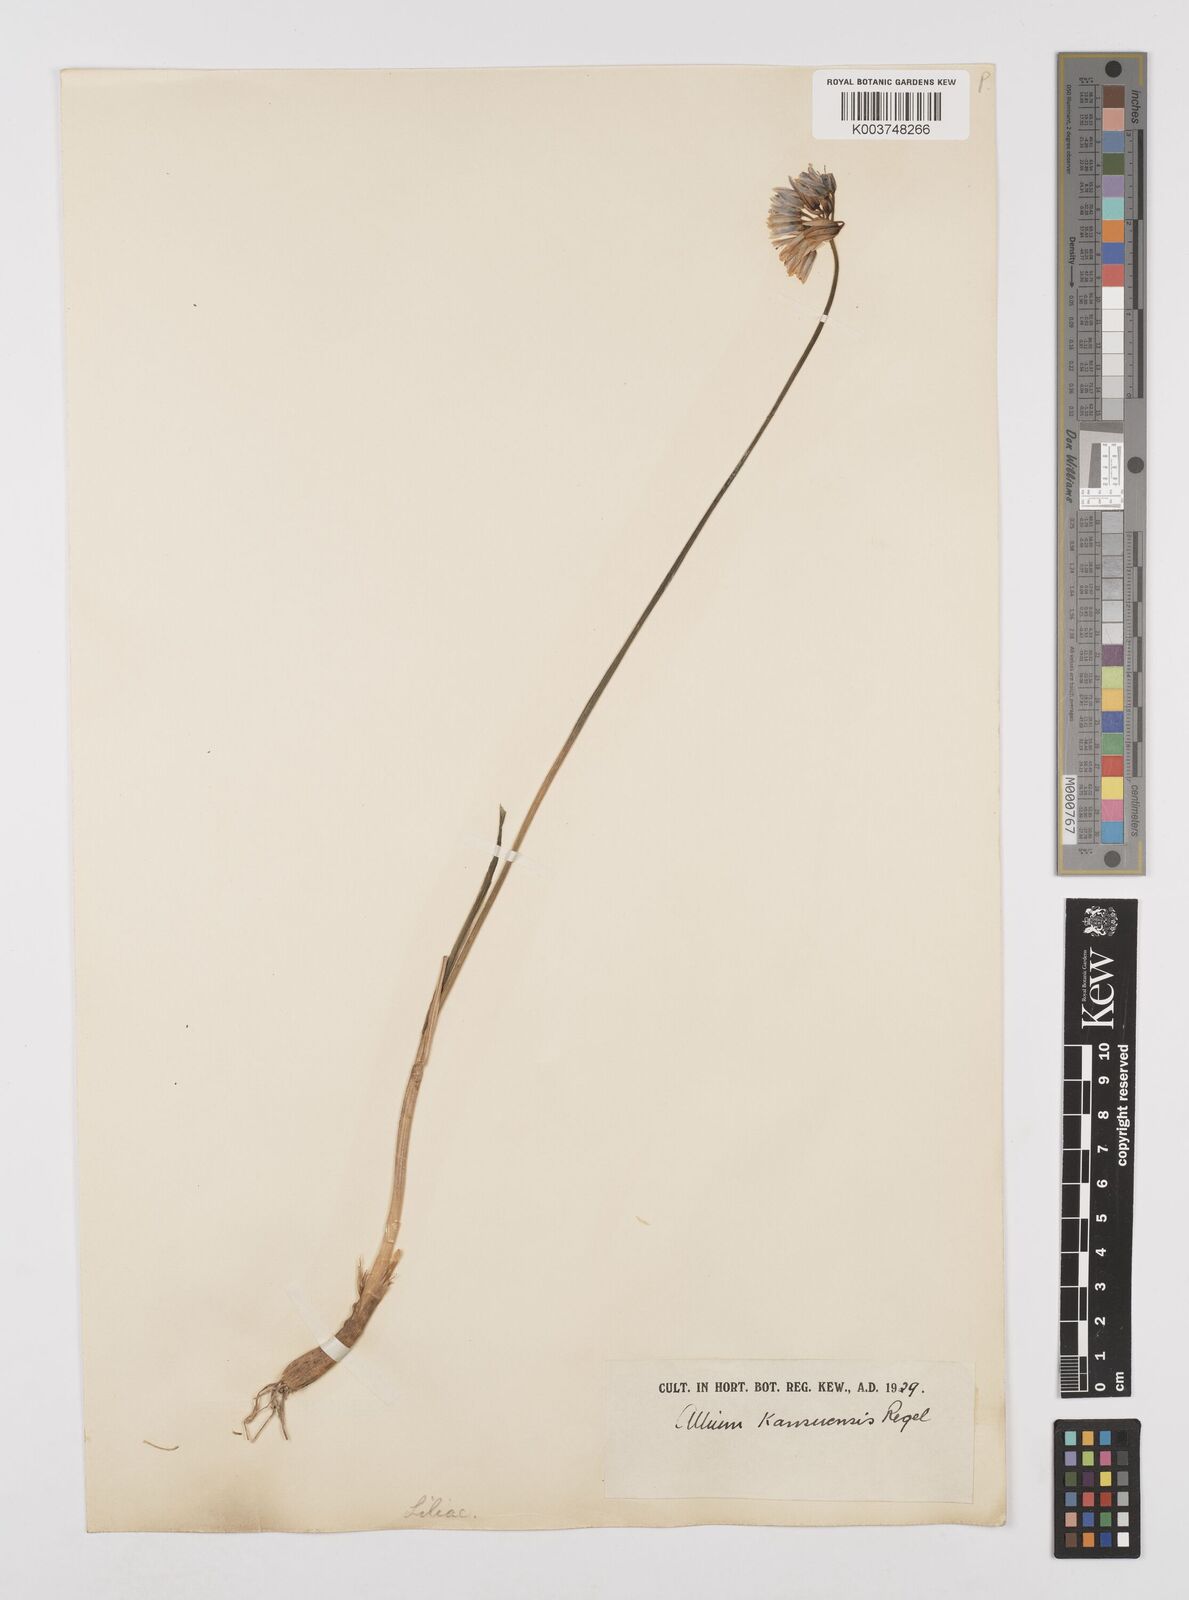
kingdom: Plantae
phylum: Tracheophyta
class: Liliopsida
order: Asparagales
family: Amaryllidaceae
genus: Allium
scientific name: Allium beesianum
